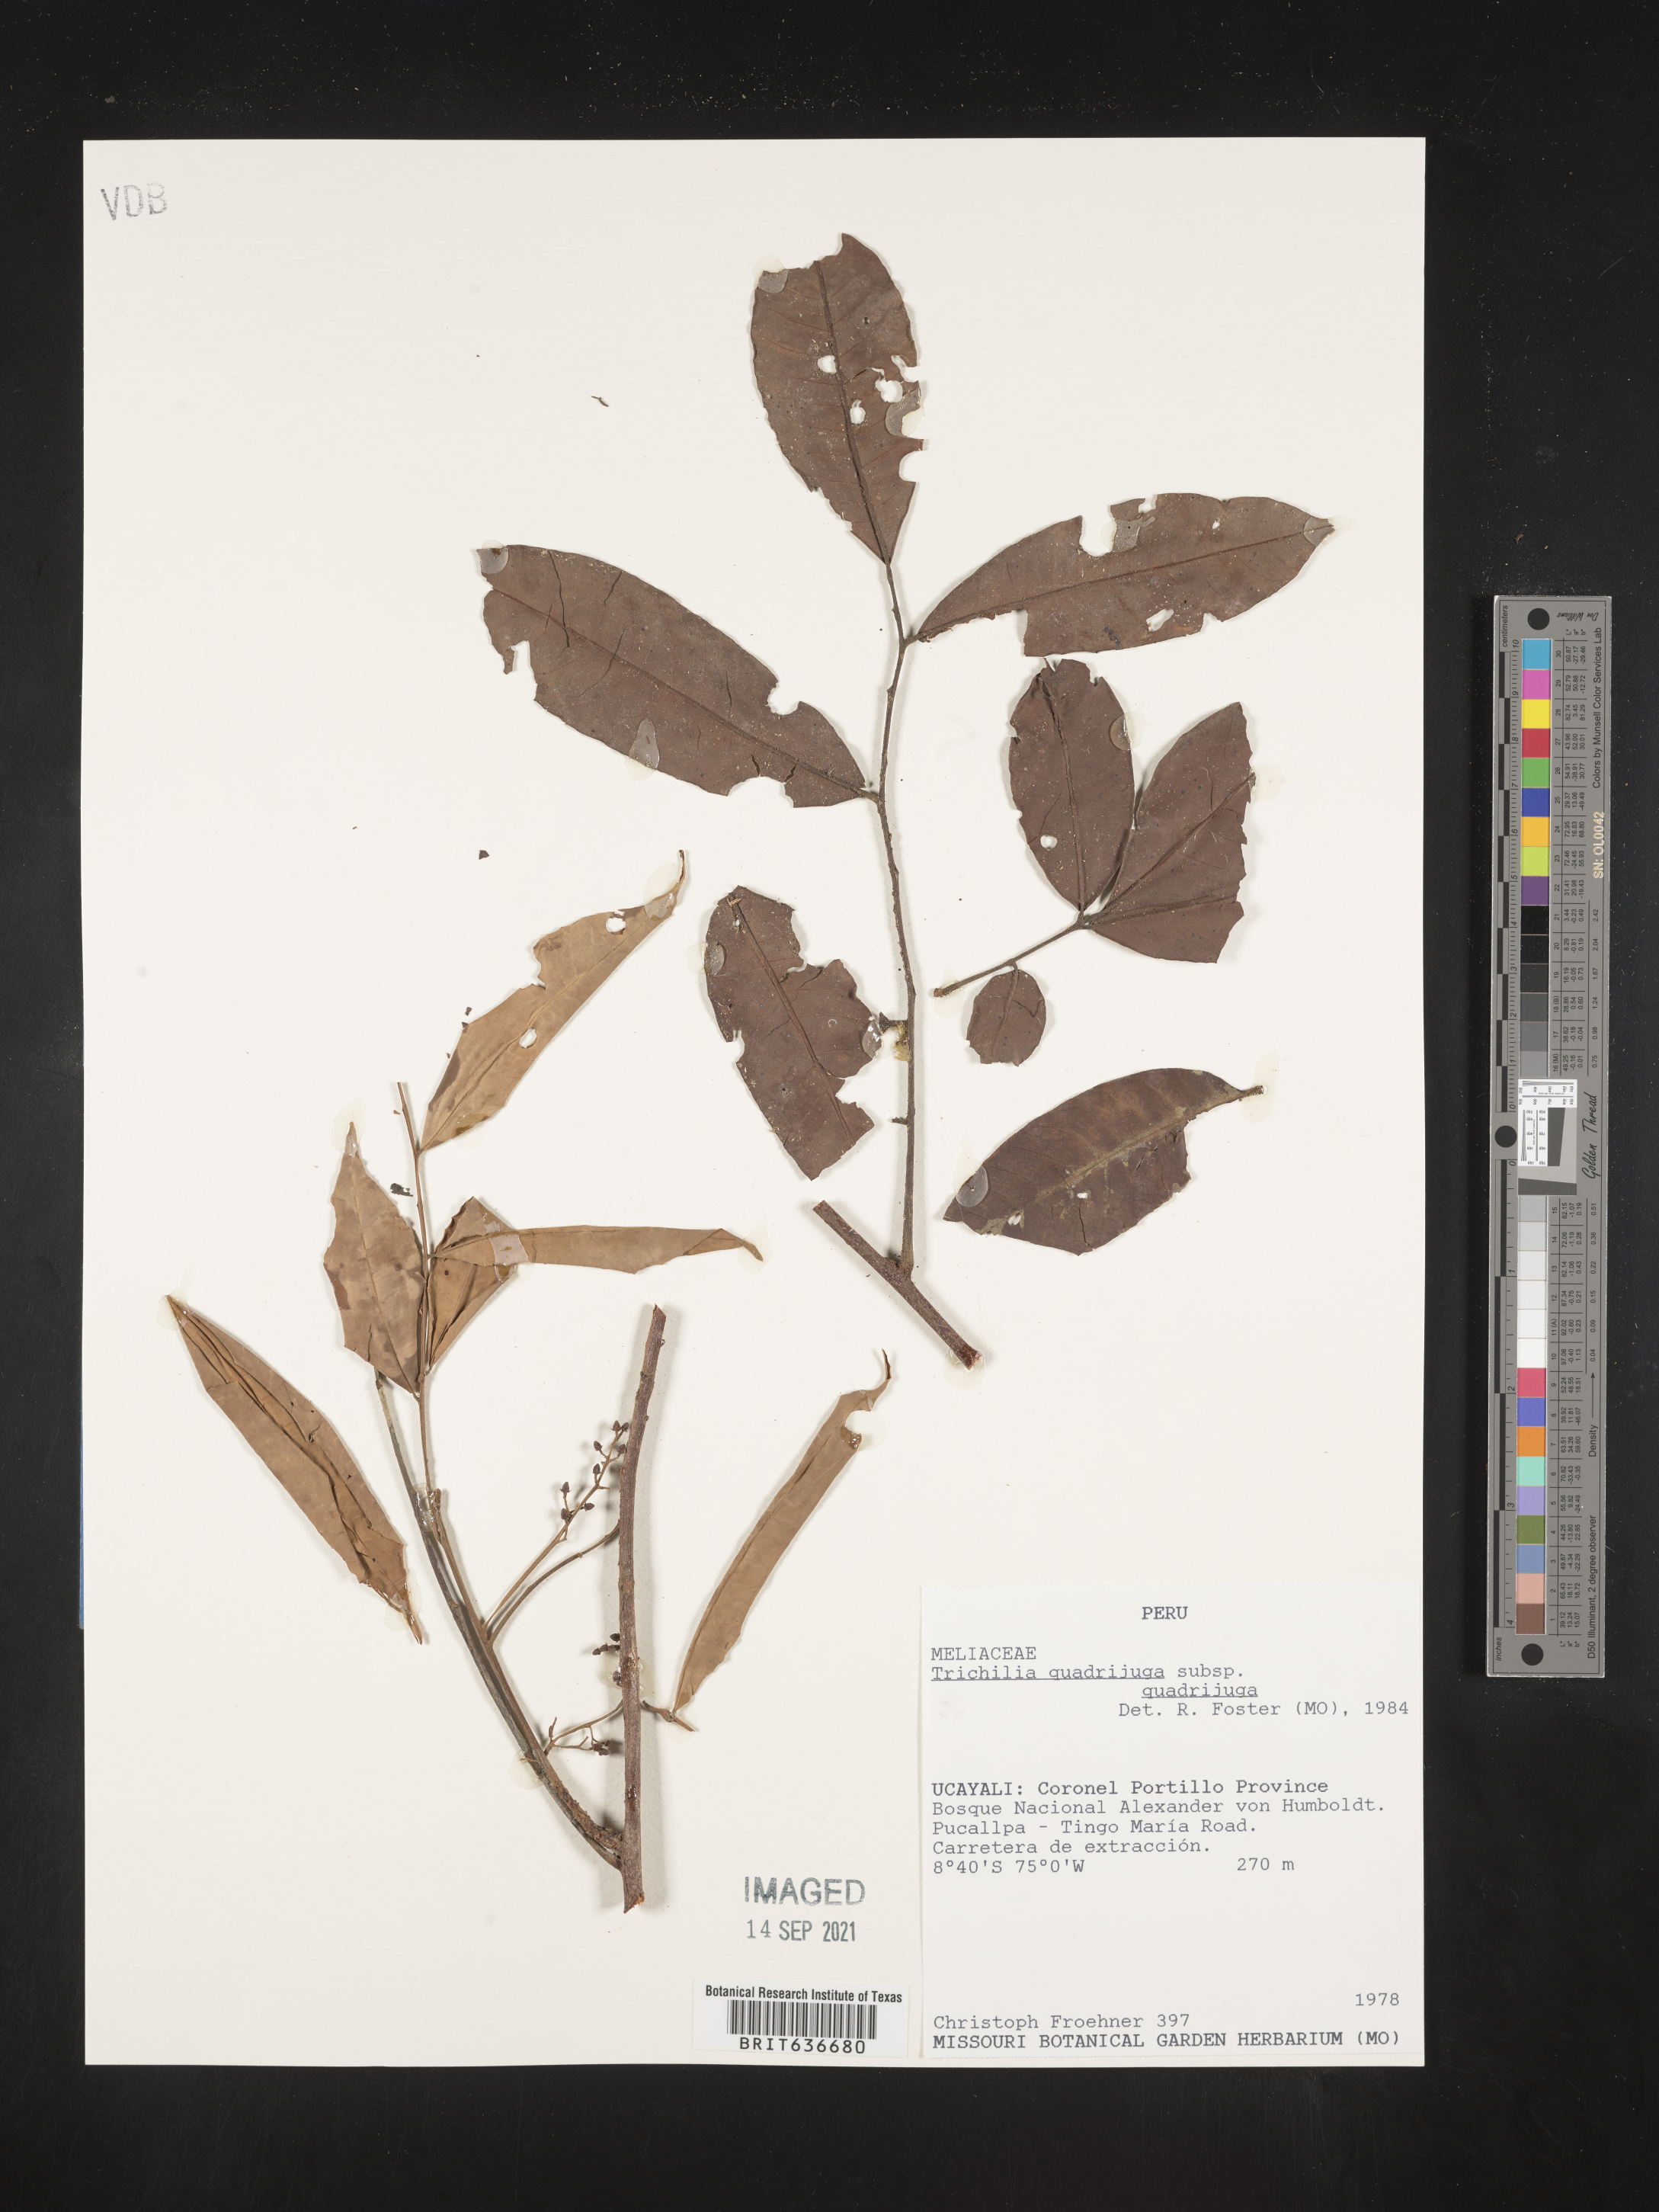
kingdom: Plantae
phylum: Tracheophyta
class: Magnoliopsida
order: Sapindales
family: Meliaceae
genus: Trichilia
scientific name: Trichilia
